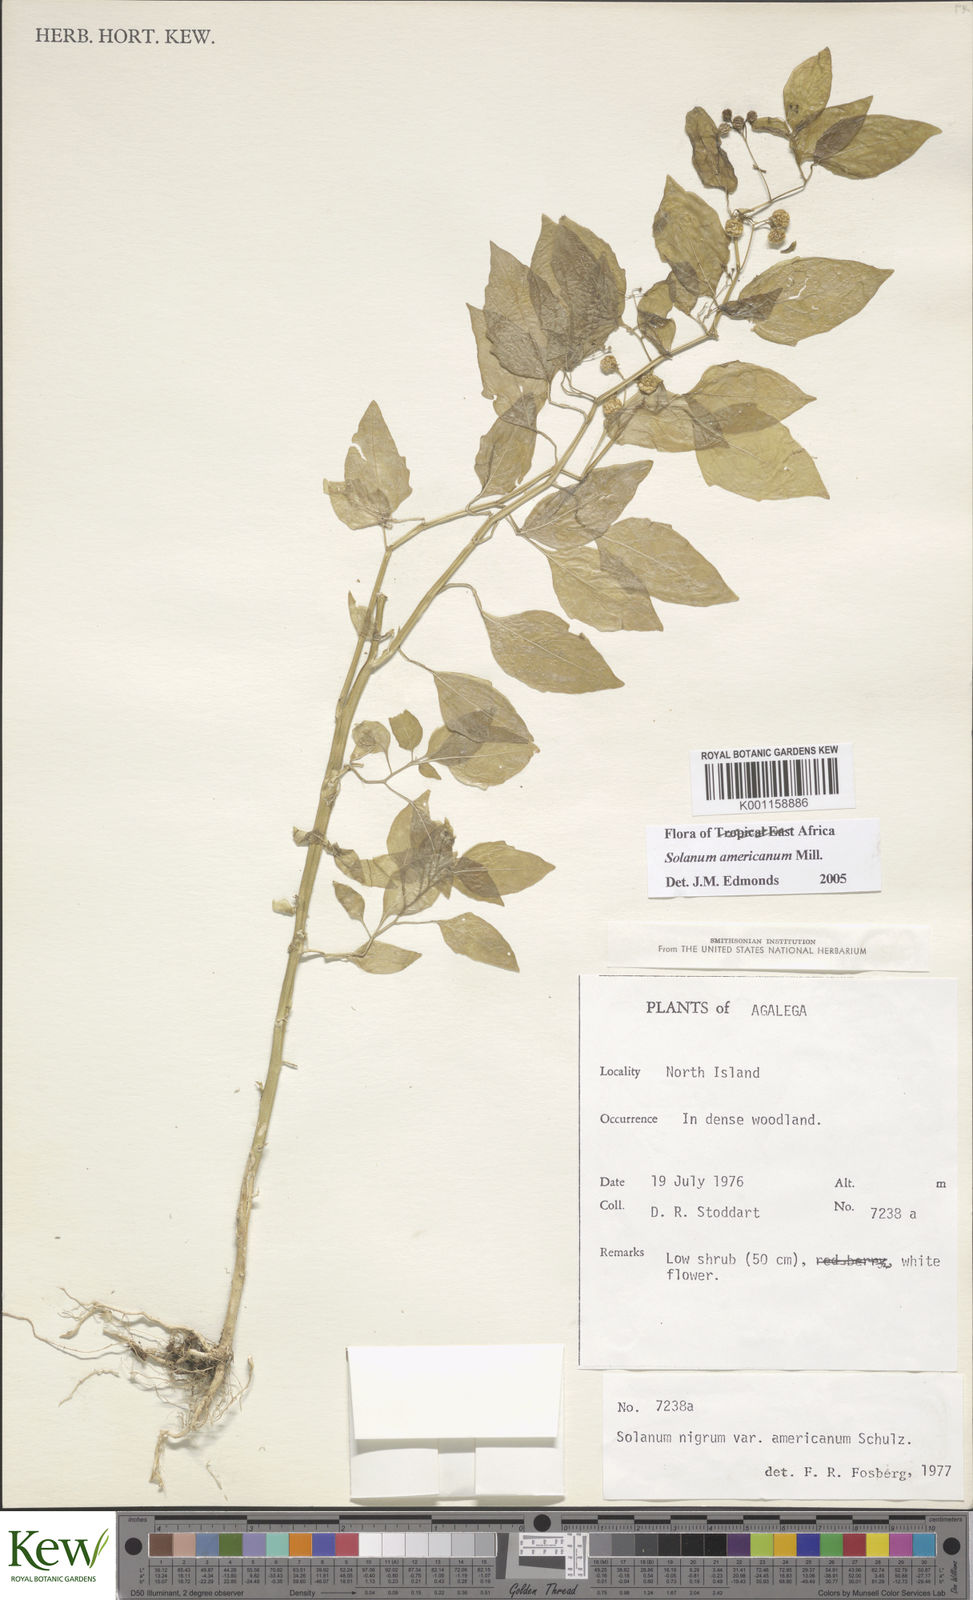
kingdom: Plantae
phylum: Tracheophyta
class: Magnoliopsida
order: Solanales
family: Solanaceae
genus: Solanum
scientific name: Solanum americanum
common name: American black nightshade
